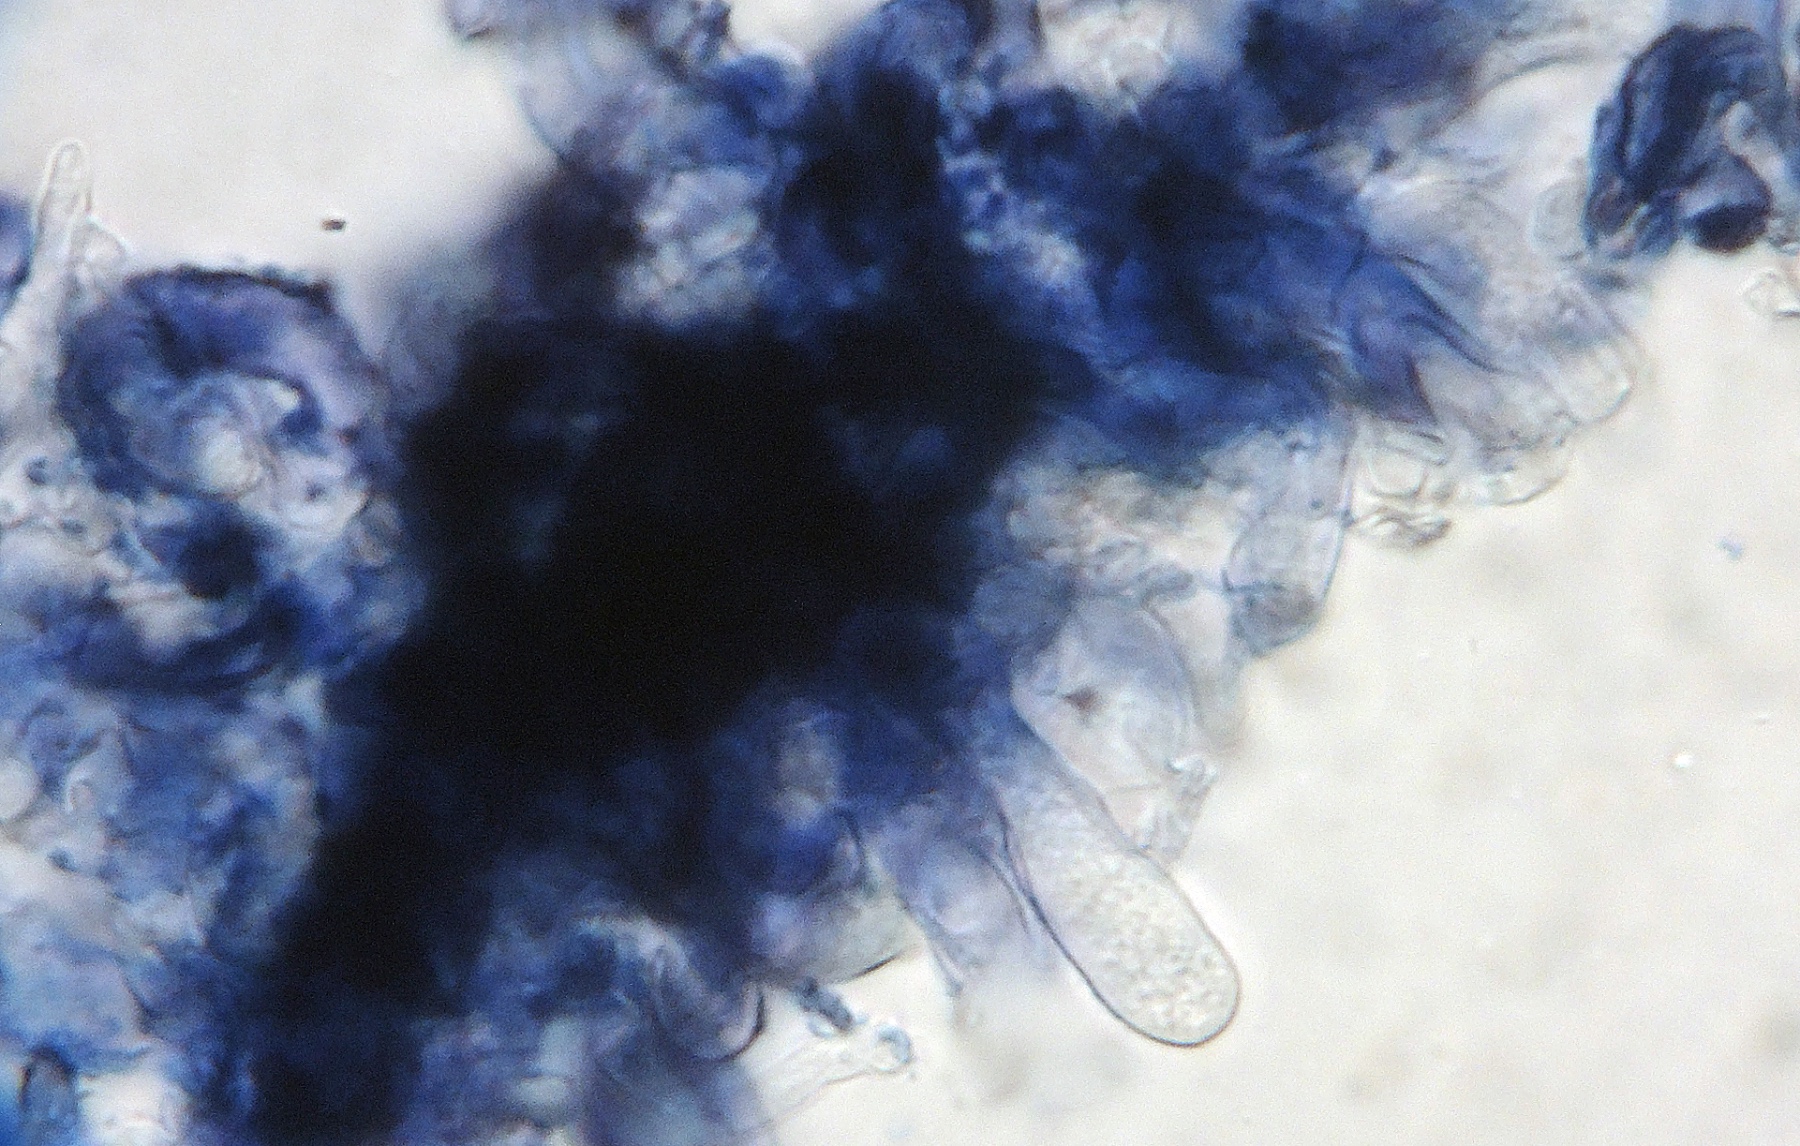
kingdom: Fungi
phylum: Basidiomycota
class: Agaricomycetes
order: Polyporales
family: Phanerochaetaceae
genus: Terana
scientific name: Terana caerulea
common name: indigoskorpe
